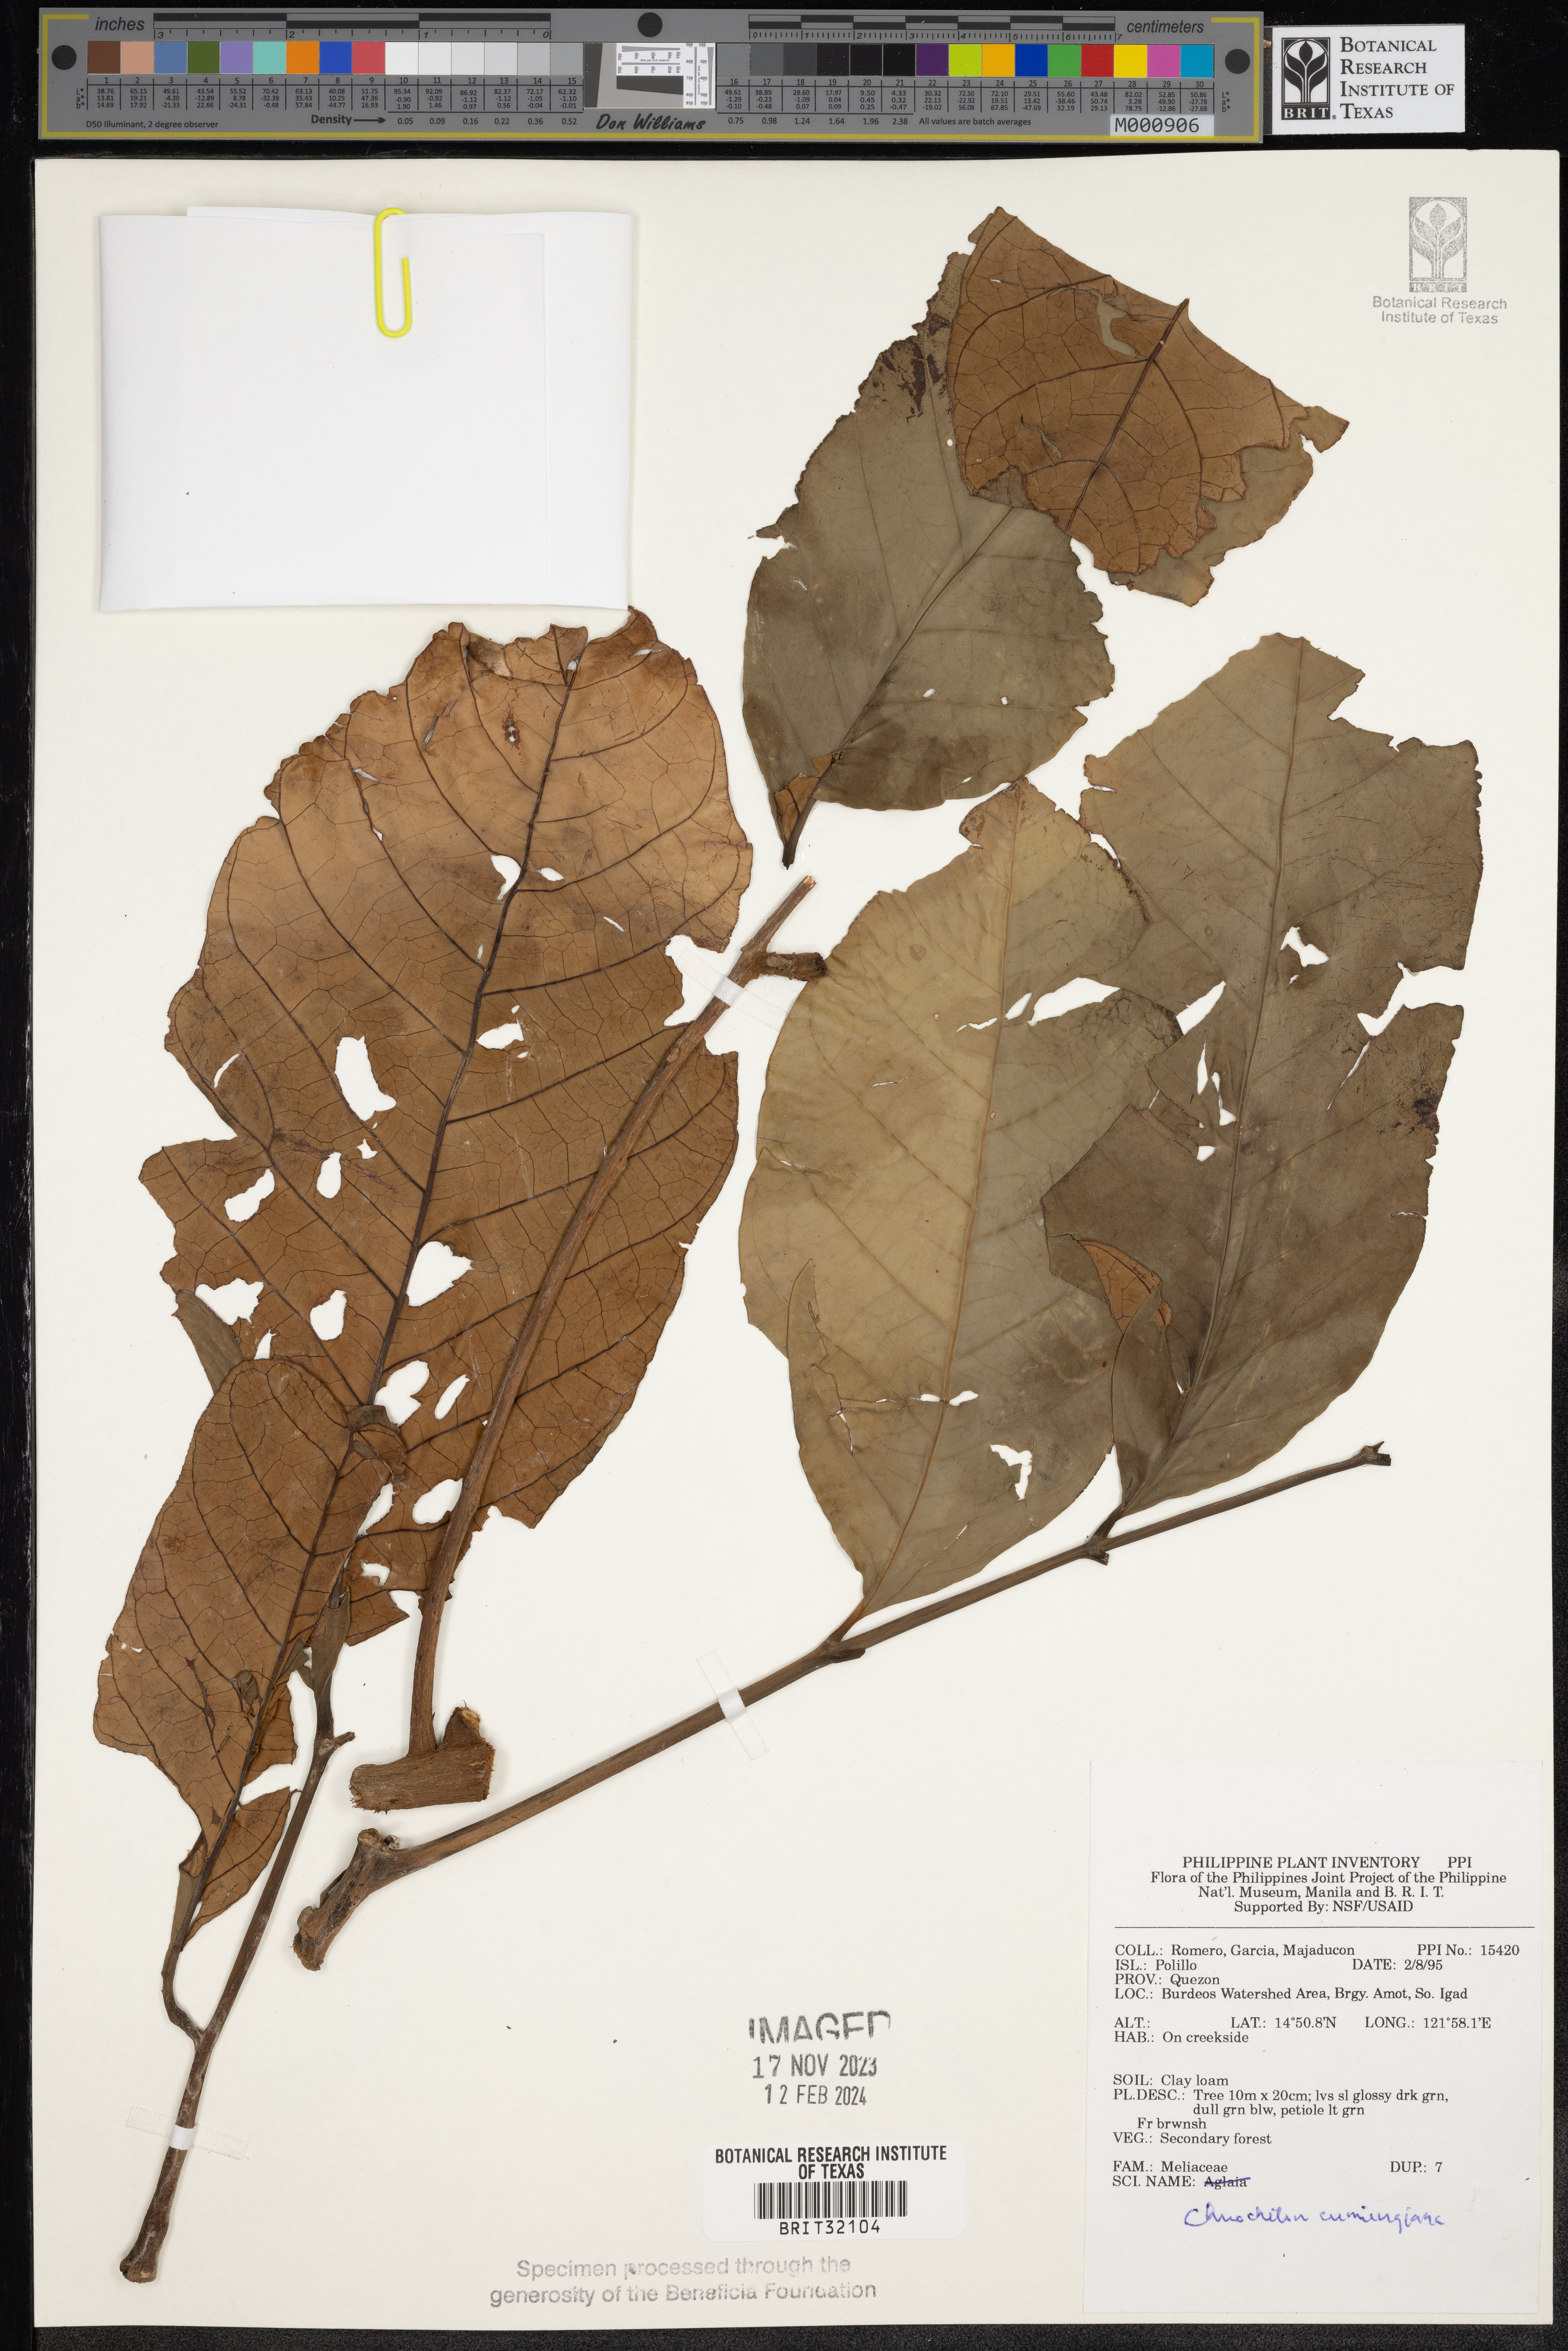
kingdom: Plantae
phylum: Tracheophyta
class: Magnoliopsida
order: Sapindales
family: Meliaceae
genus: Chisocheton
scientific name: Chisocheton cumingianus
